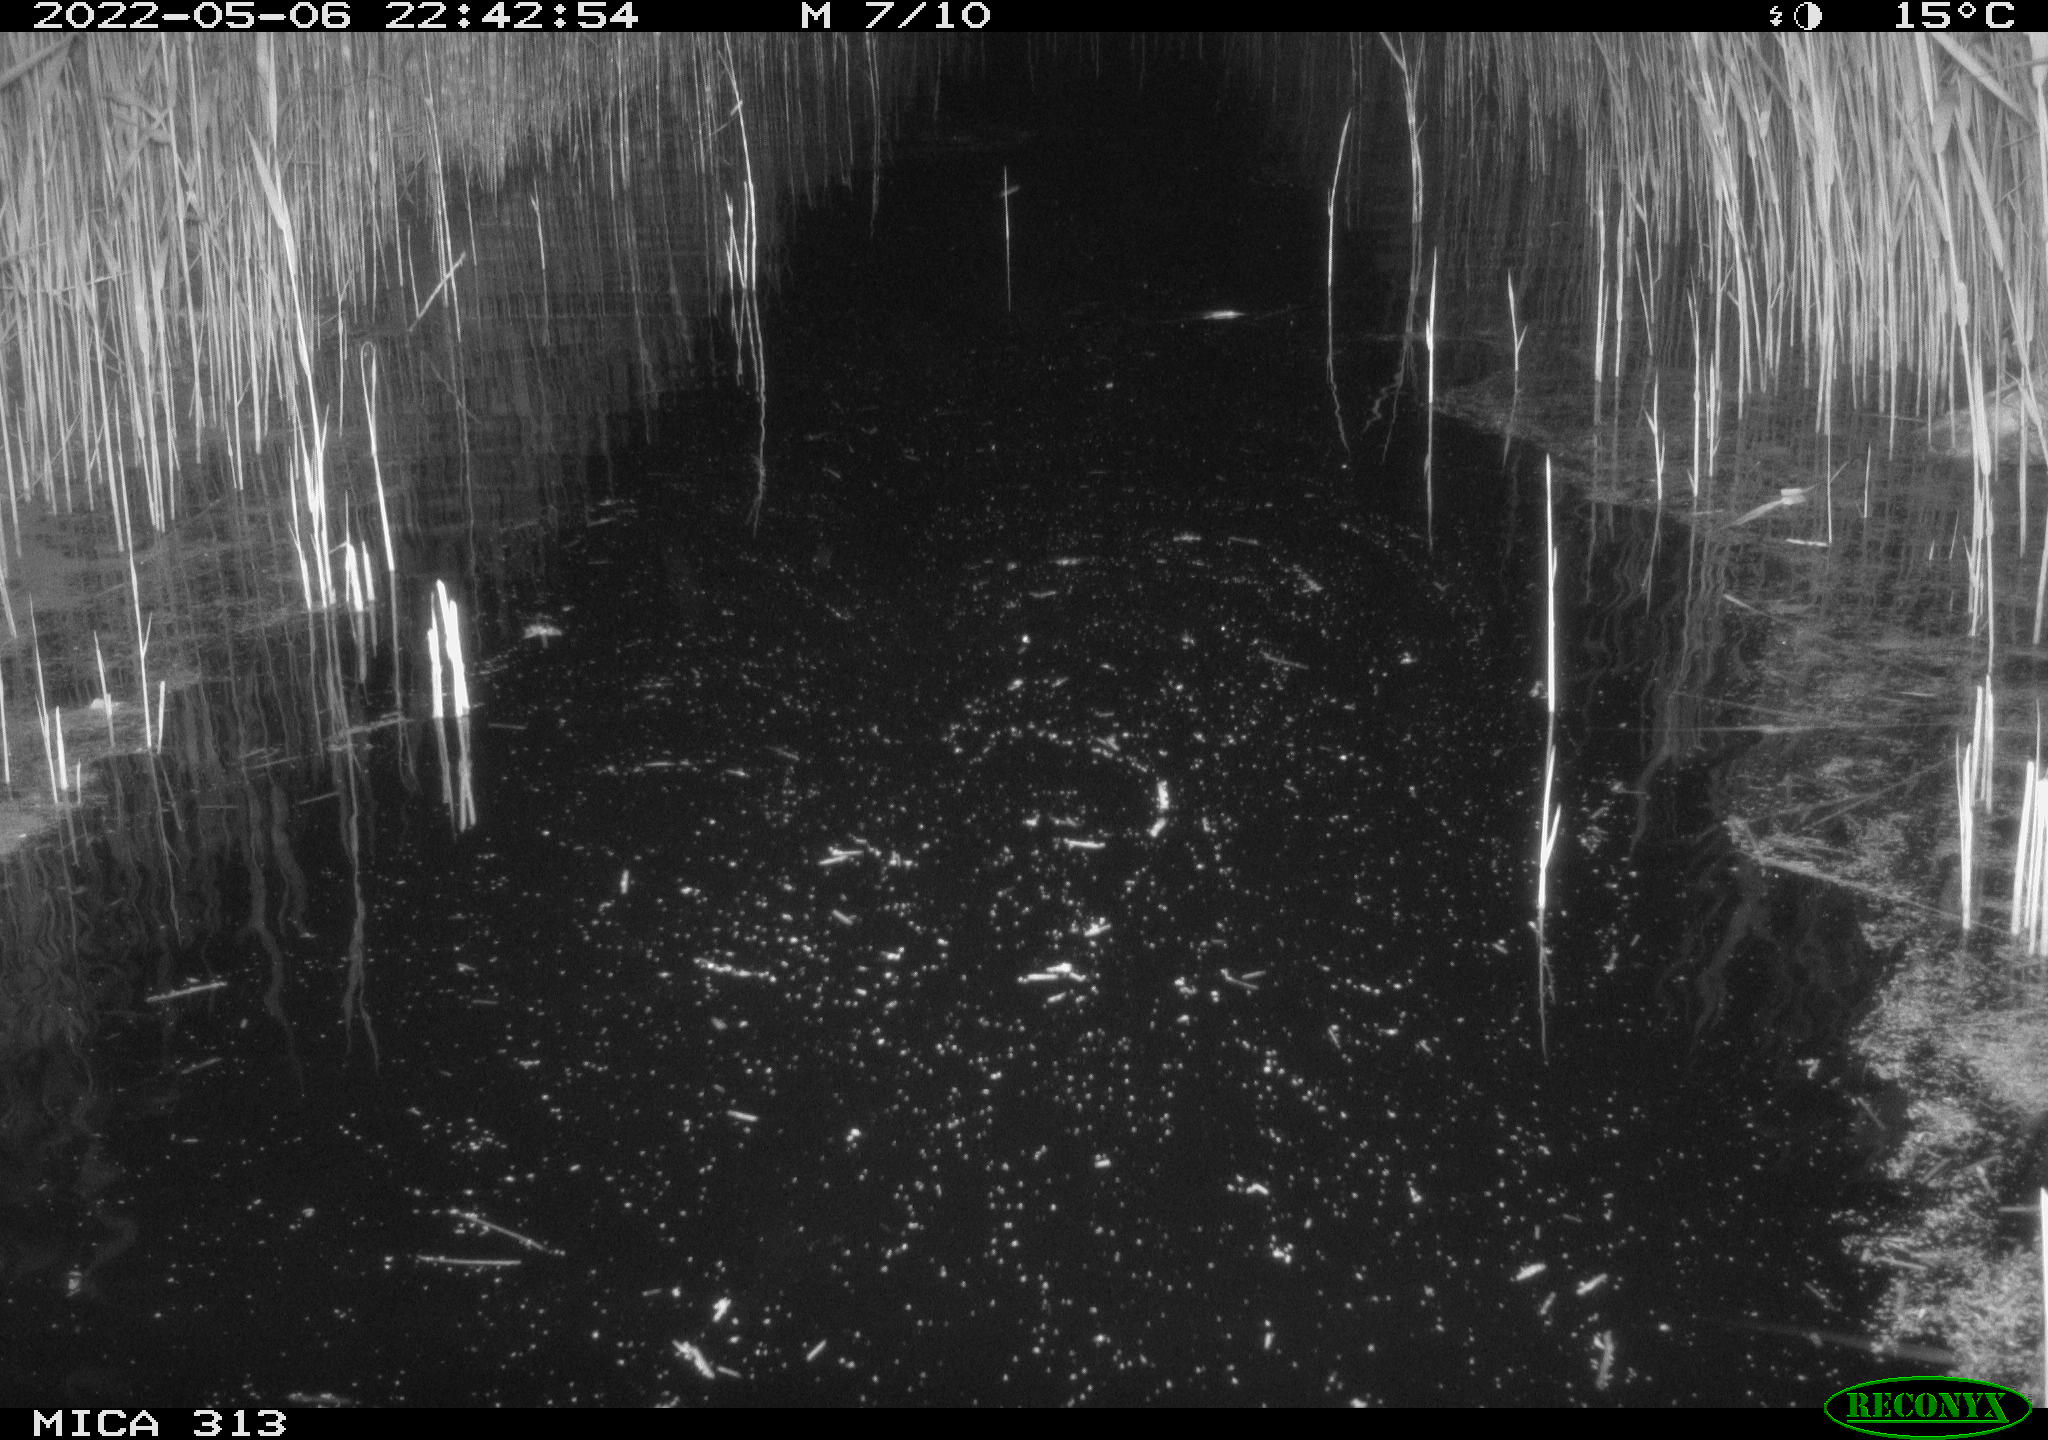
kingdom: Animalia
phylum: Chordata
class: Aves
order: Anseriformes
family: Anatidae
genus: Anas
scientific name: Anas platyrhynchos
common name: Mallard
